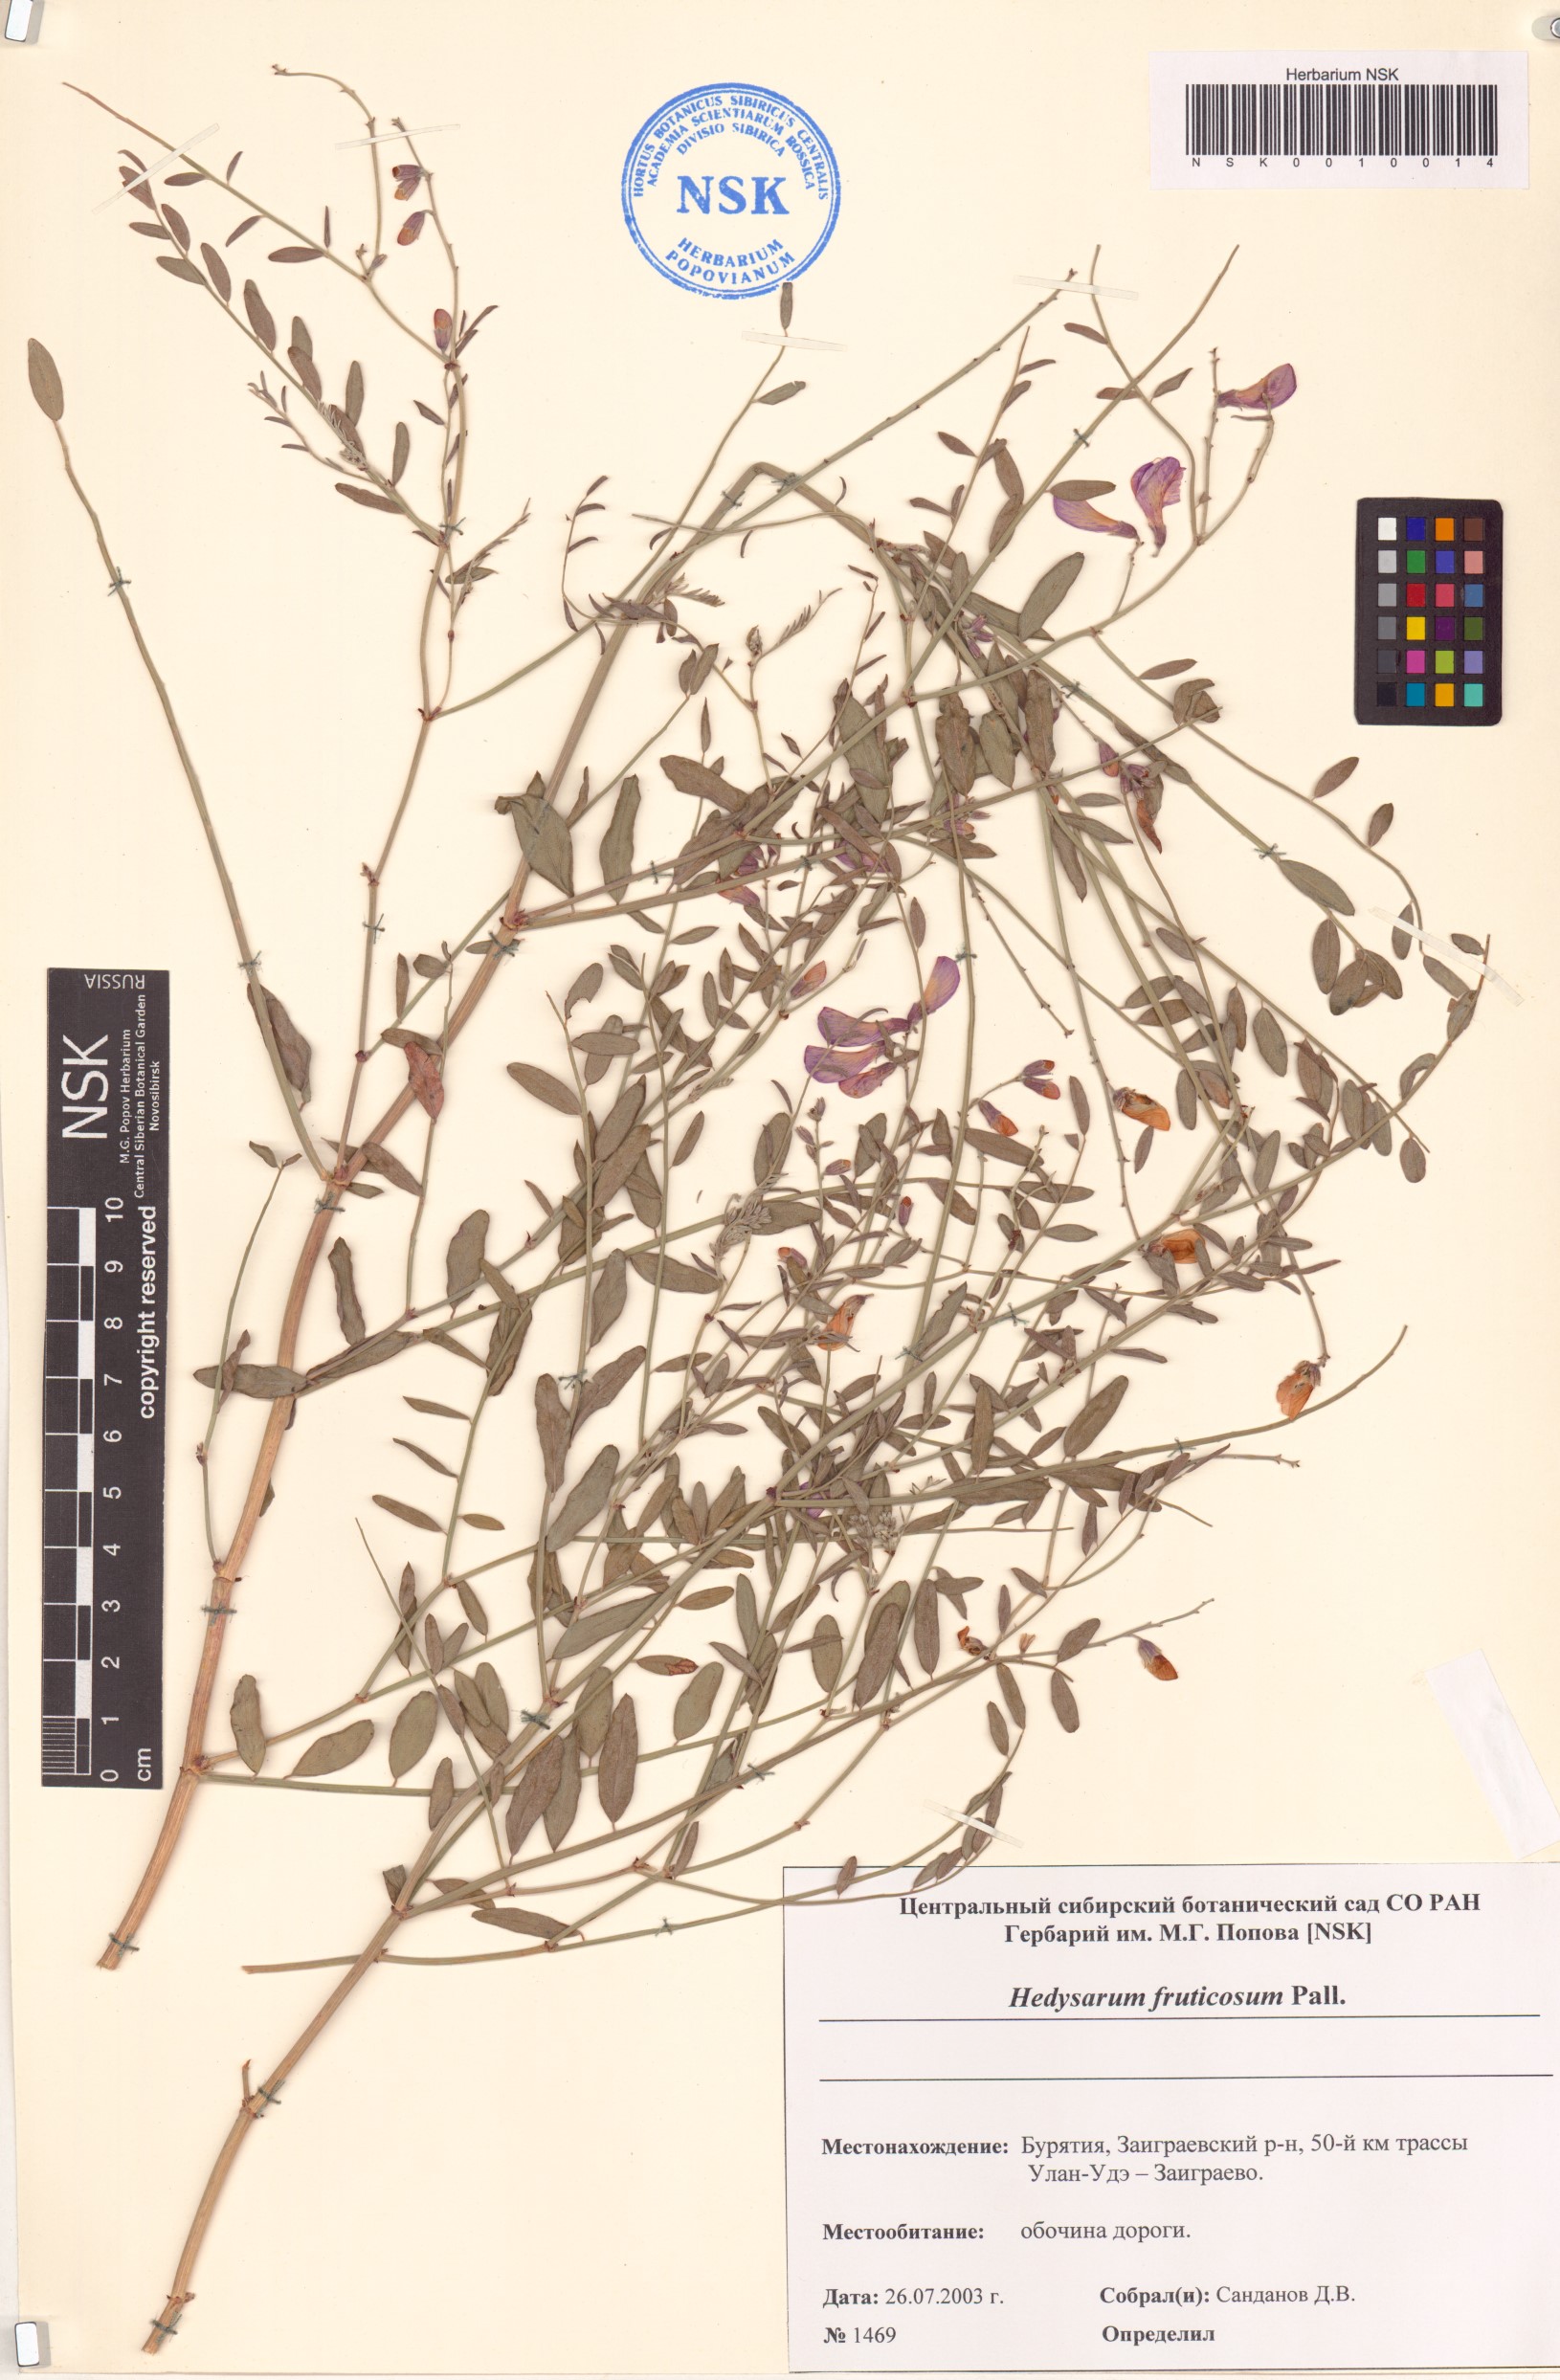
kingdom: Plantae
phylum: Tracheophyta
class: Magnoliopsida
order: Fabales
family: Fabaceae
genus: Corethrodendron
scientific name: Corethrodendron fruticosum
